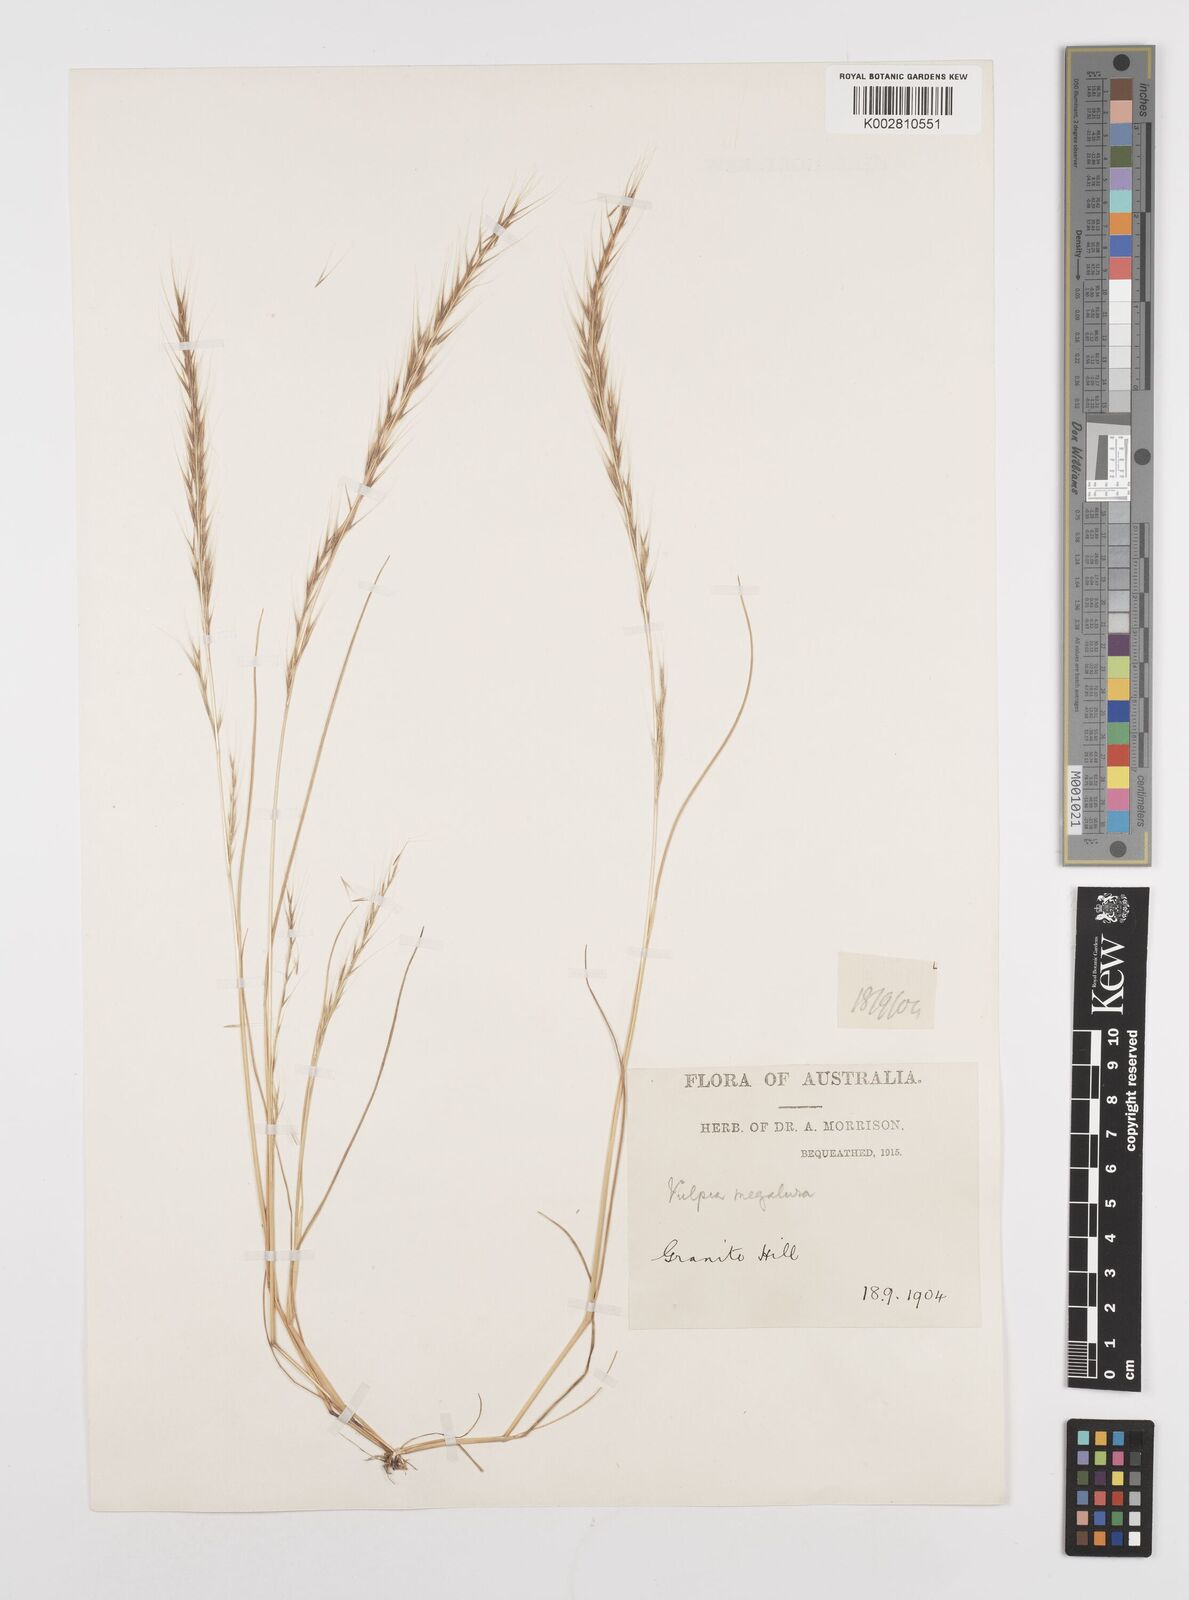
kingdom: Plantae
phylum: Tracheophyta
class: Liliopsida
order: Poales
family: Poaceae
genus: Festuca
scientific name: Festuca myuros
